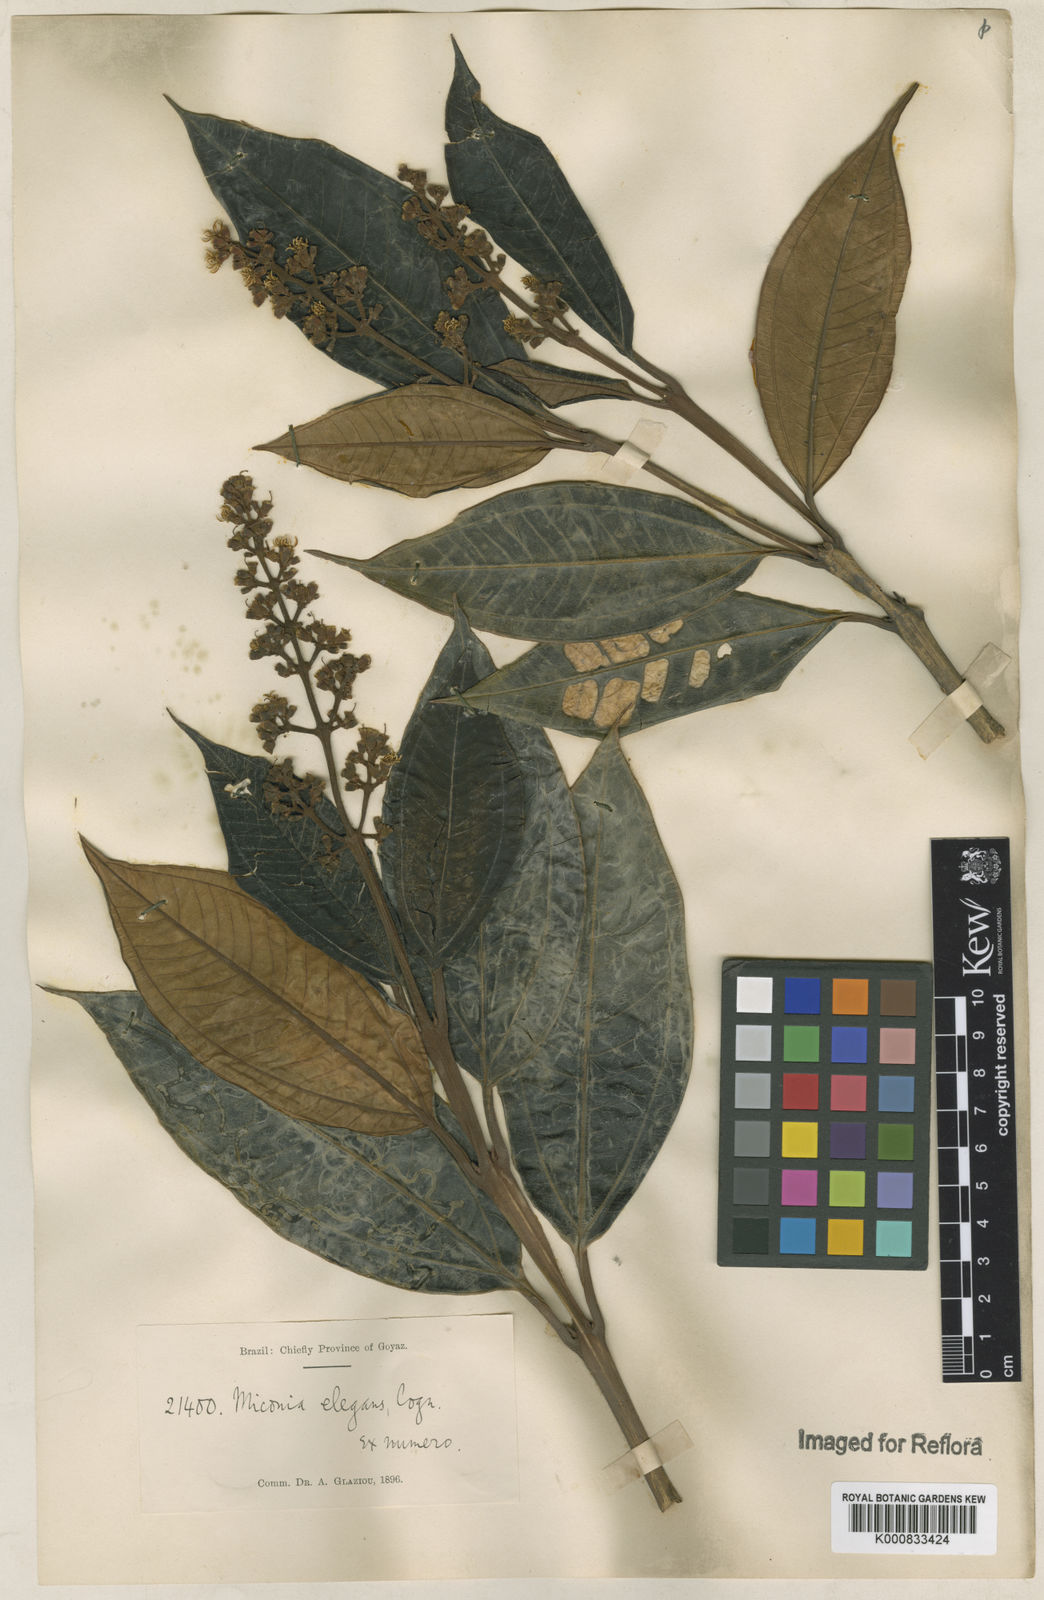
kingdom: Plantae
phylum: Tracheophyta
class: Magnoliopsida
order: Myrtales
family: Melastomataceae
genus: Miconia
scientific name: Miconia elegans
